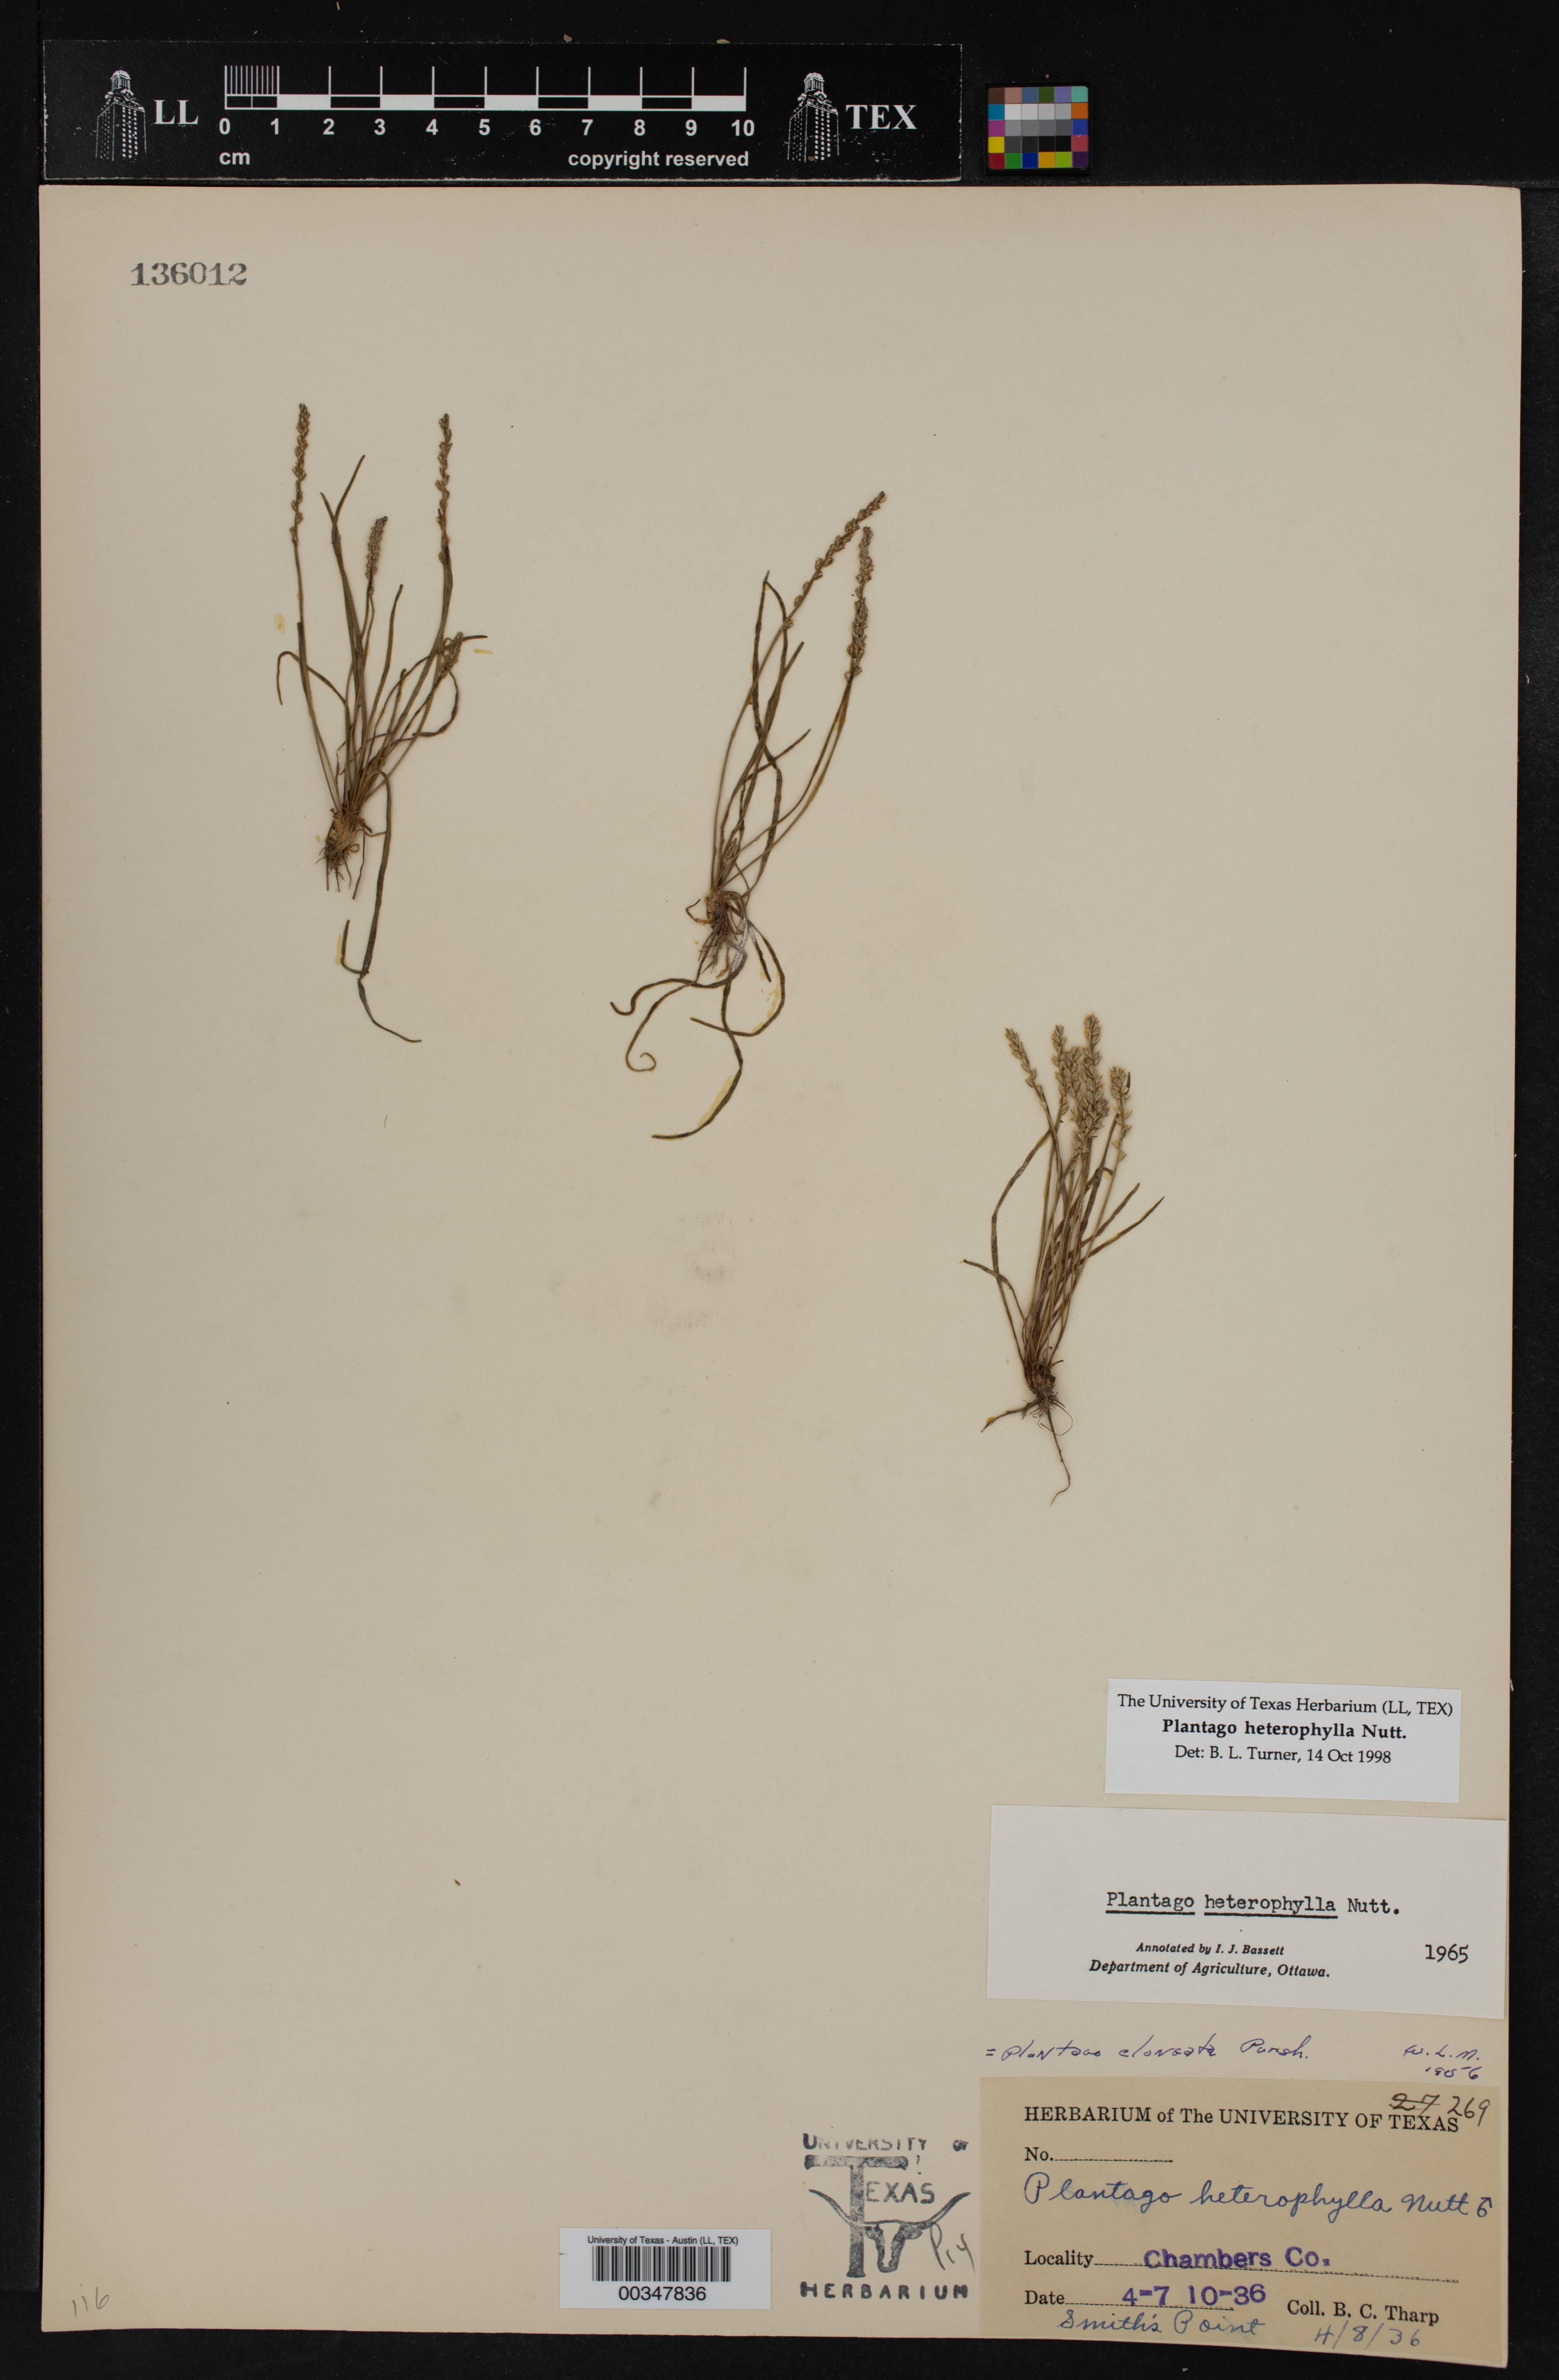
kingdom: Plantae
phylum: Tracheophyta
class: Magnoliopsida
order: Lamiales
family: Plantaginaceae
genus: Plantago
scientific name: Plantago heterophylla
